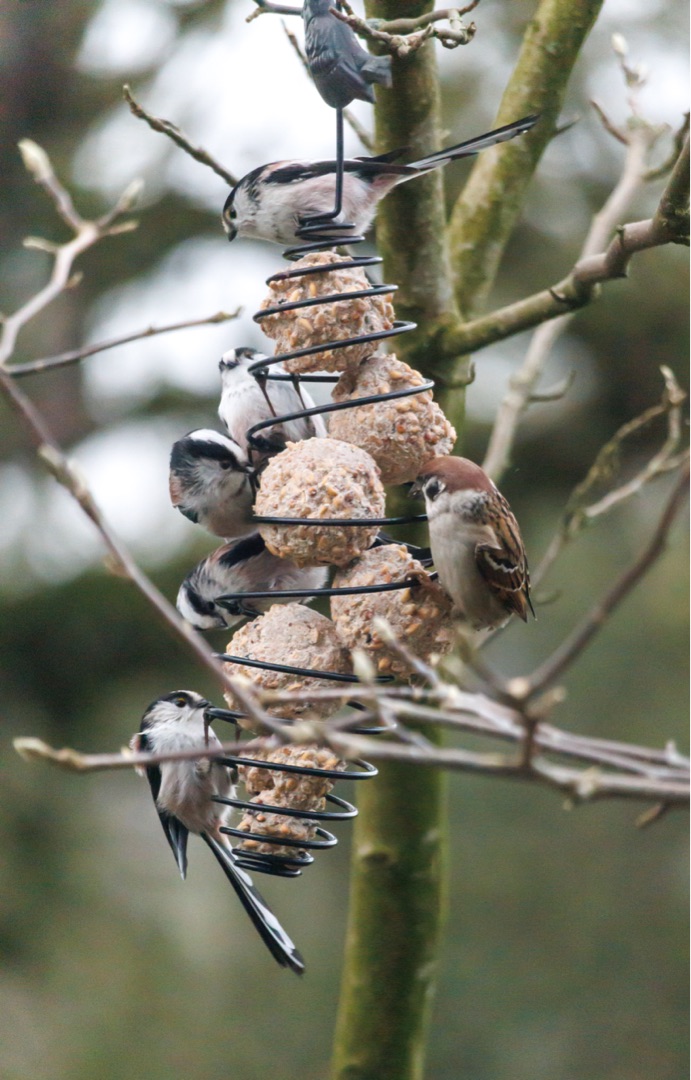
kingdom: Animalia
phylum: Chordata
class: Aves
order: Passeriformes
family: Aegithalidae
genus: Aegithalos
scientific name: Aegithalos caudatus
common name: Halemejse
